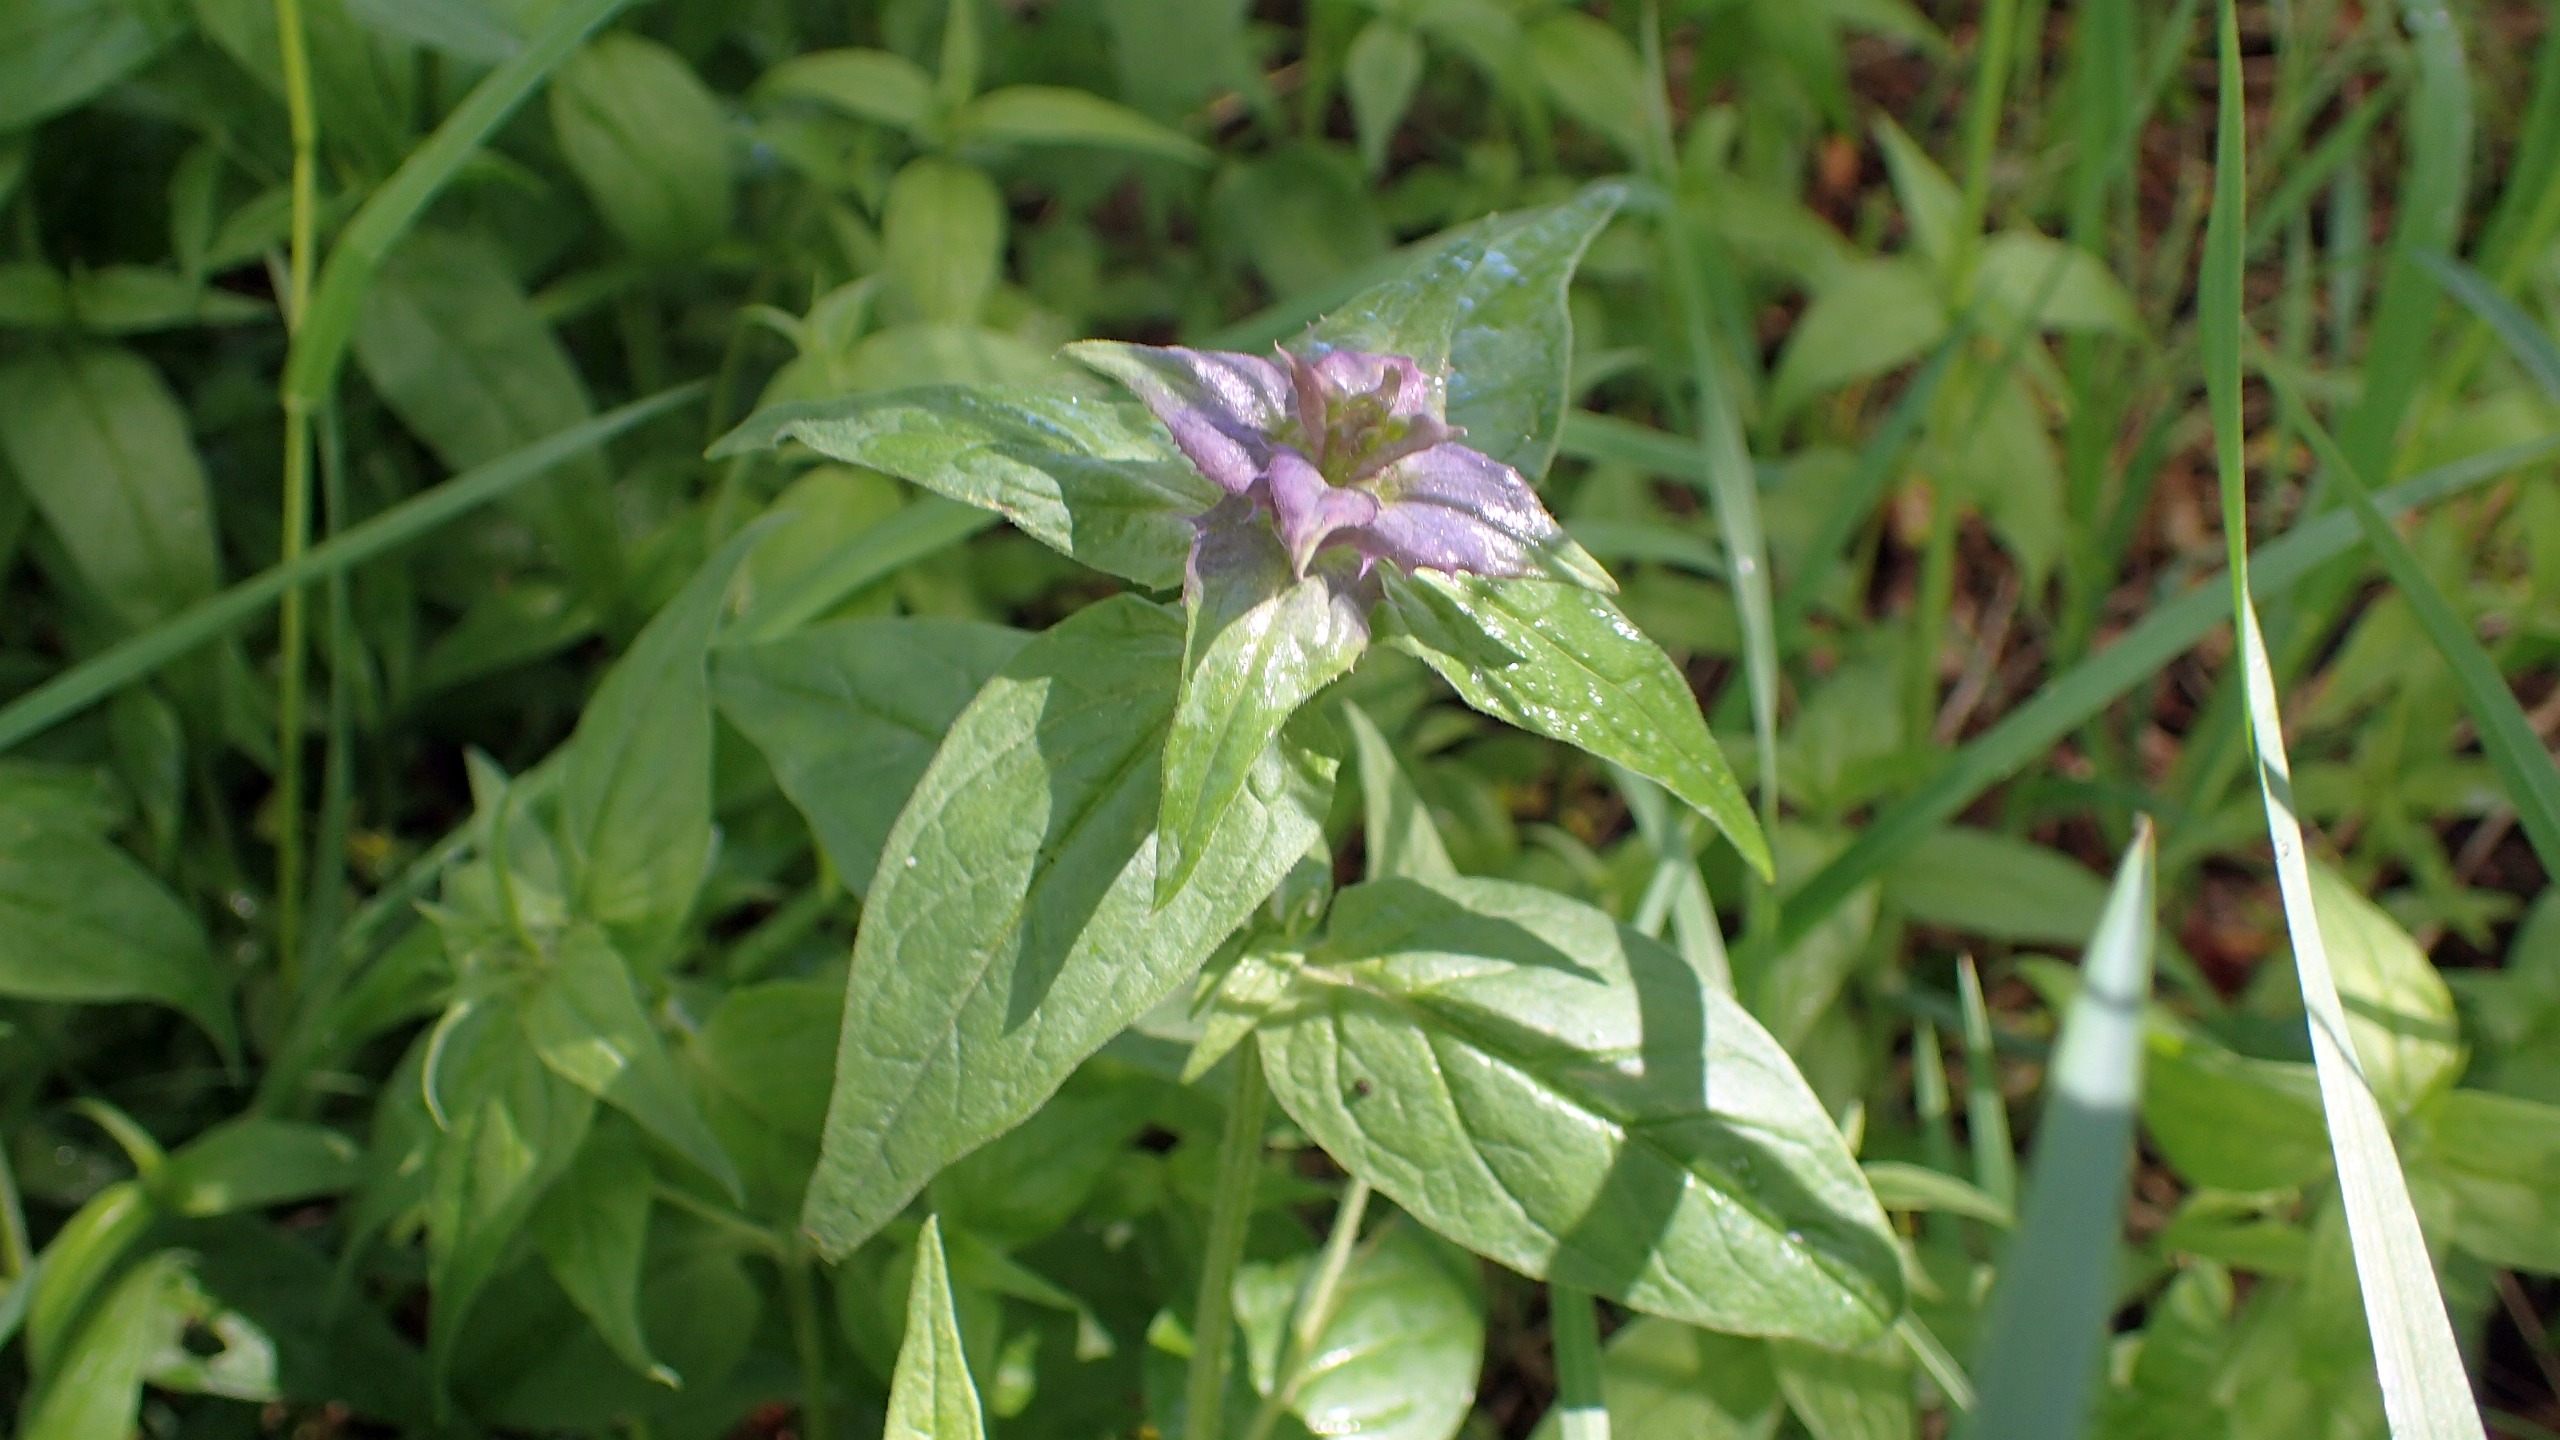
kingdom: Plantae
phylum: Tracheophyta
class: Magnoliopsida
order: Lamiales
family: Orobanchaceae
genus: Melampyrum
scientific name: Melampyrum nemorosum
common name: Blåtoppet kohvede
